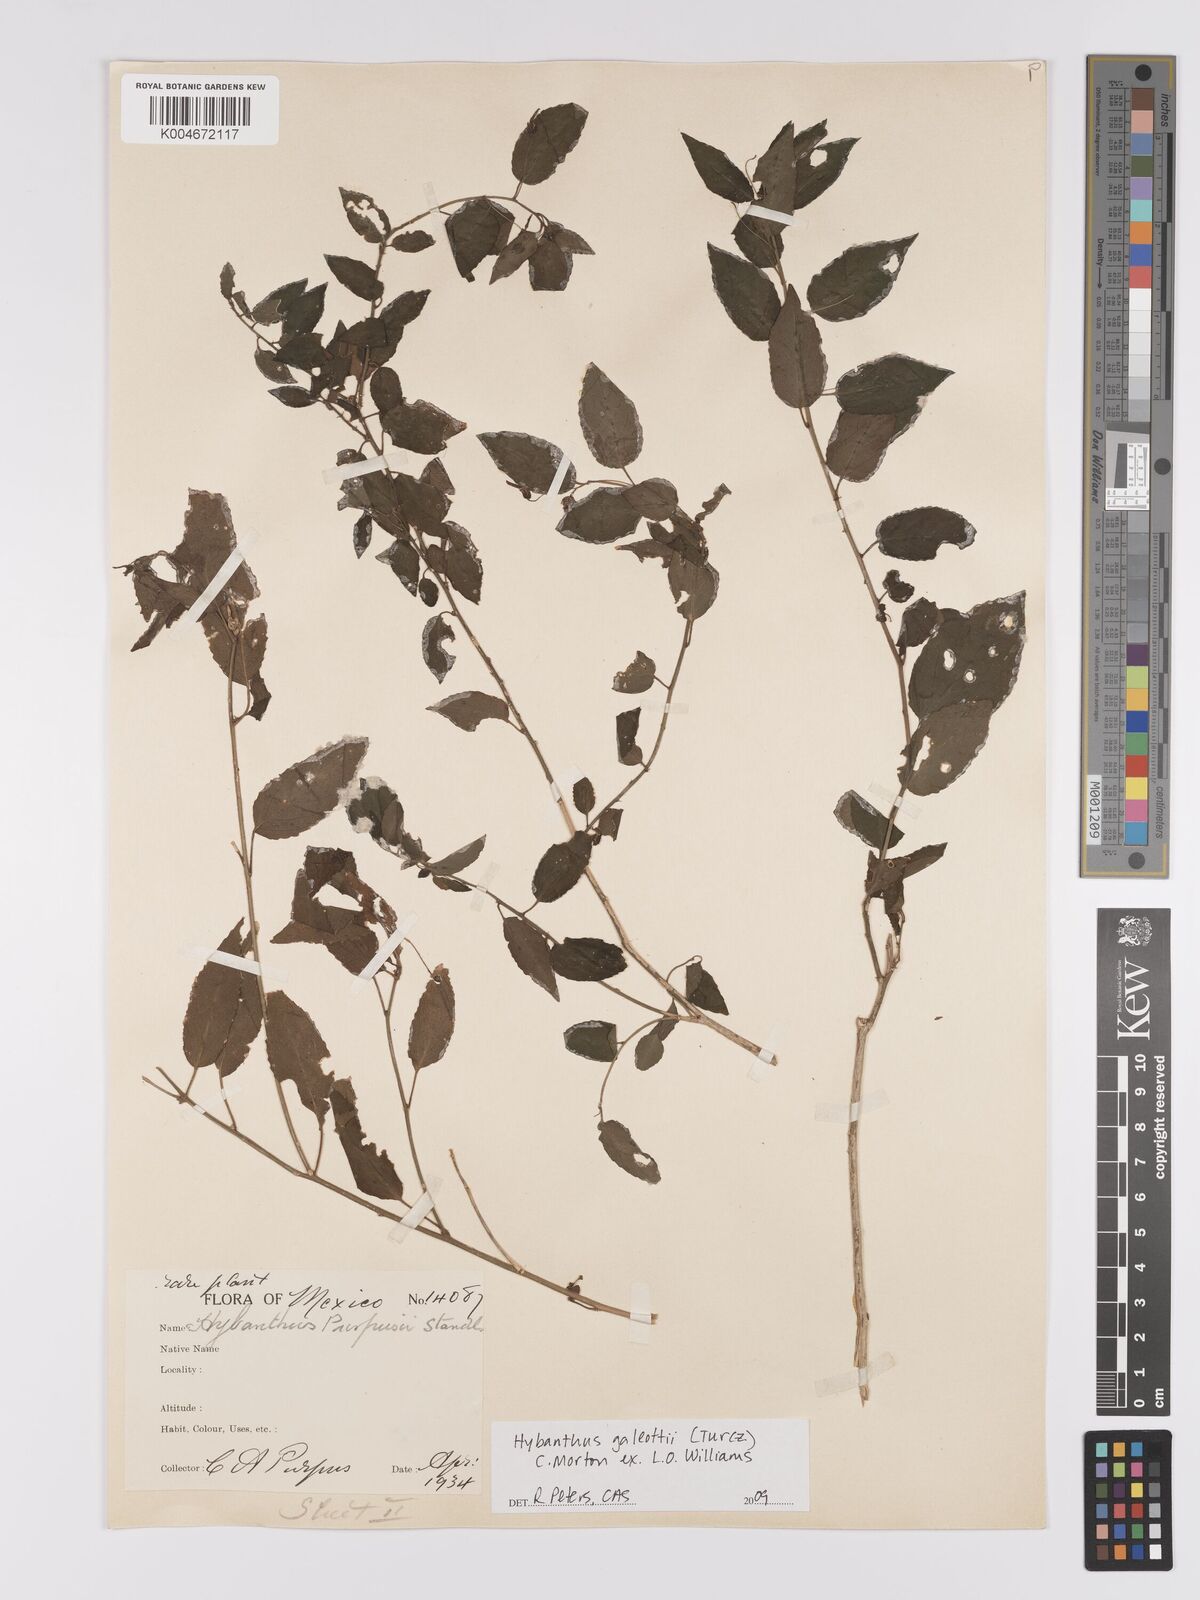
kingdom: Plantae
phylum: Tracheophyta
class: Magnoliopsida
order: Malpighiales
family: Violaceae
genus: Hybanthus
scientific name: Hybanthus galeottii
